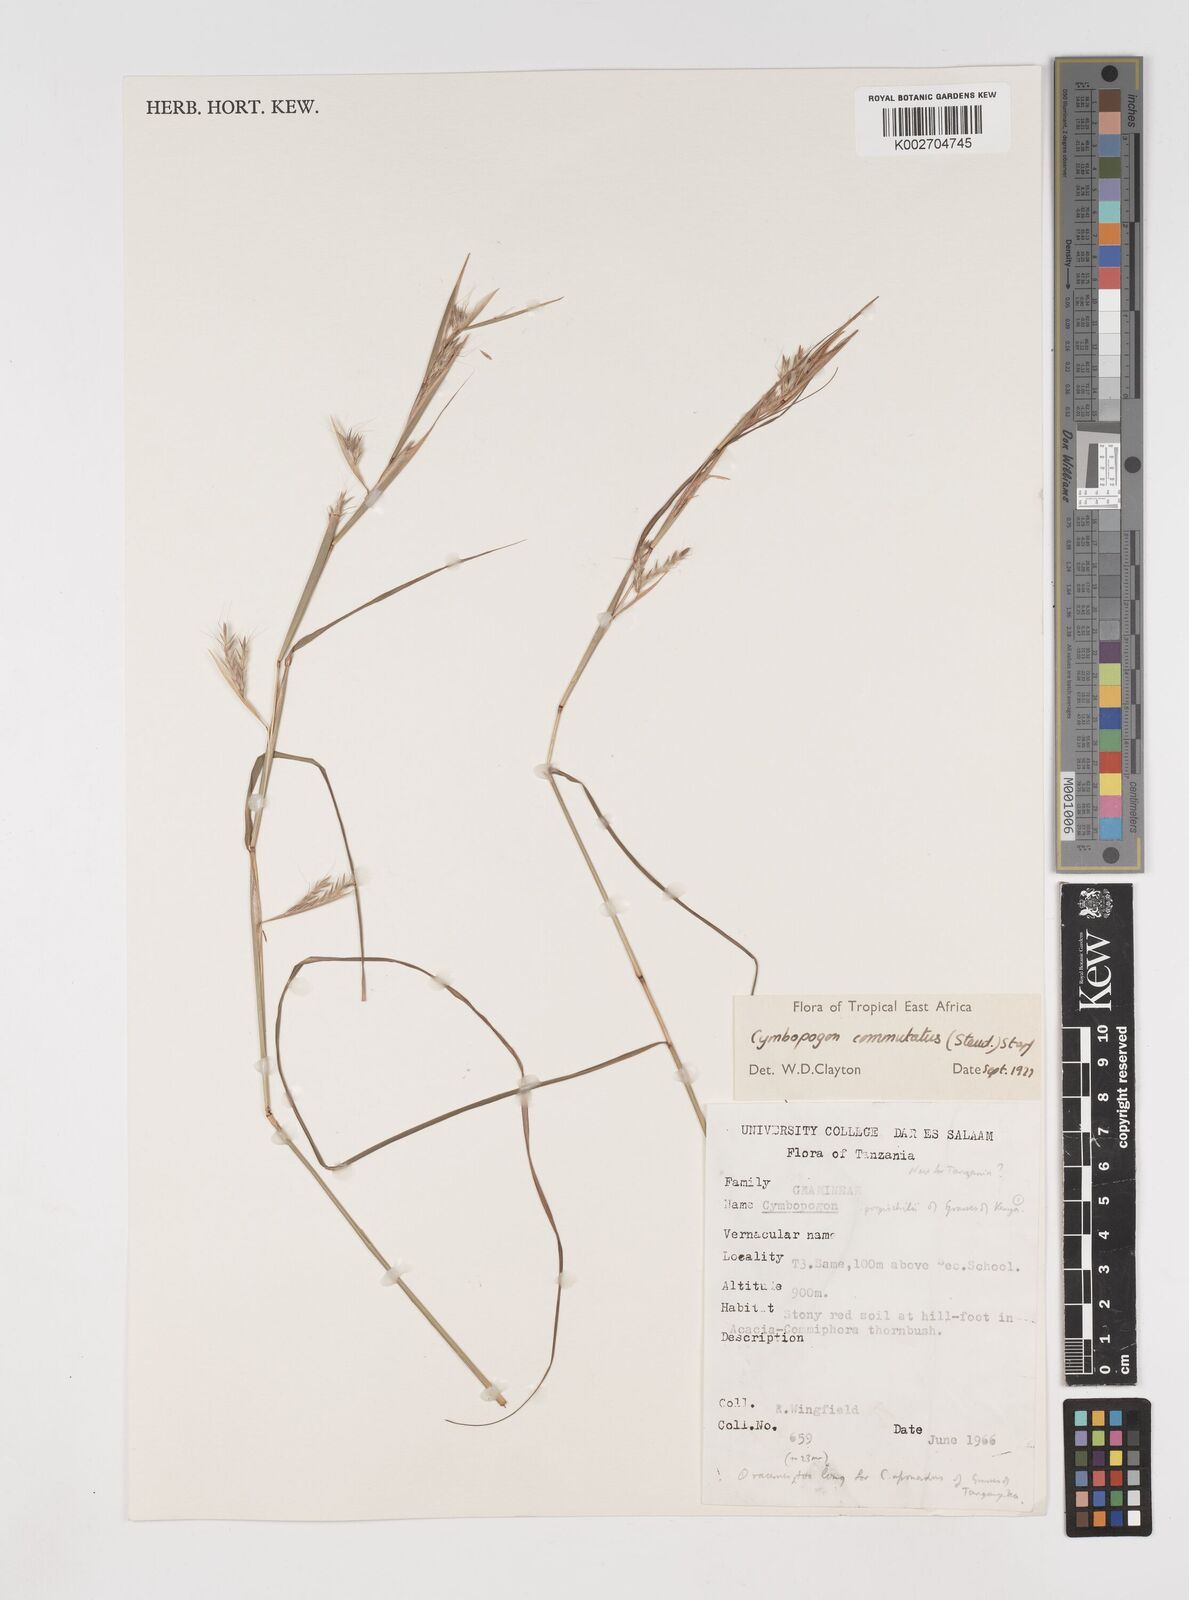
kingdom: Plantae
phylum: Tracheophyta
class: Liliopsida
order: Poales
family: Poaceae
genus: Cymbopogon
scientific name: Cymbopogon commutatus
